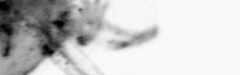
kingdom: Animalia
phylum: Arthropoda
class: Copepoda
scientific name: Copepoda
